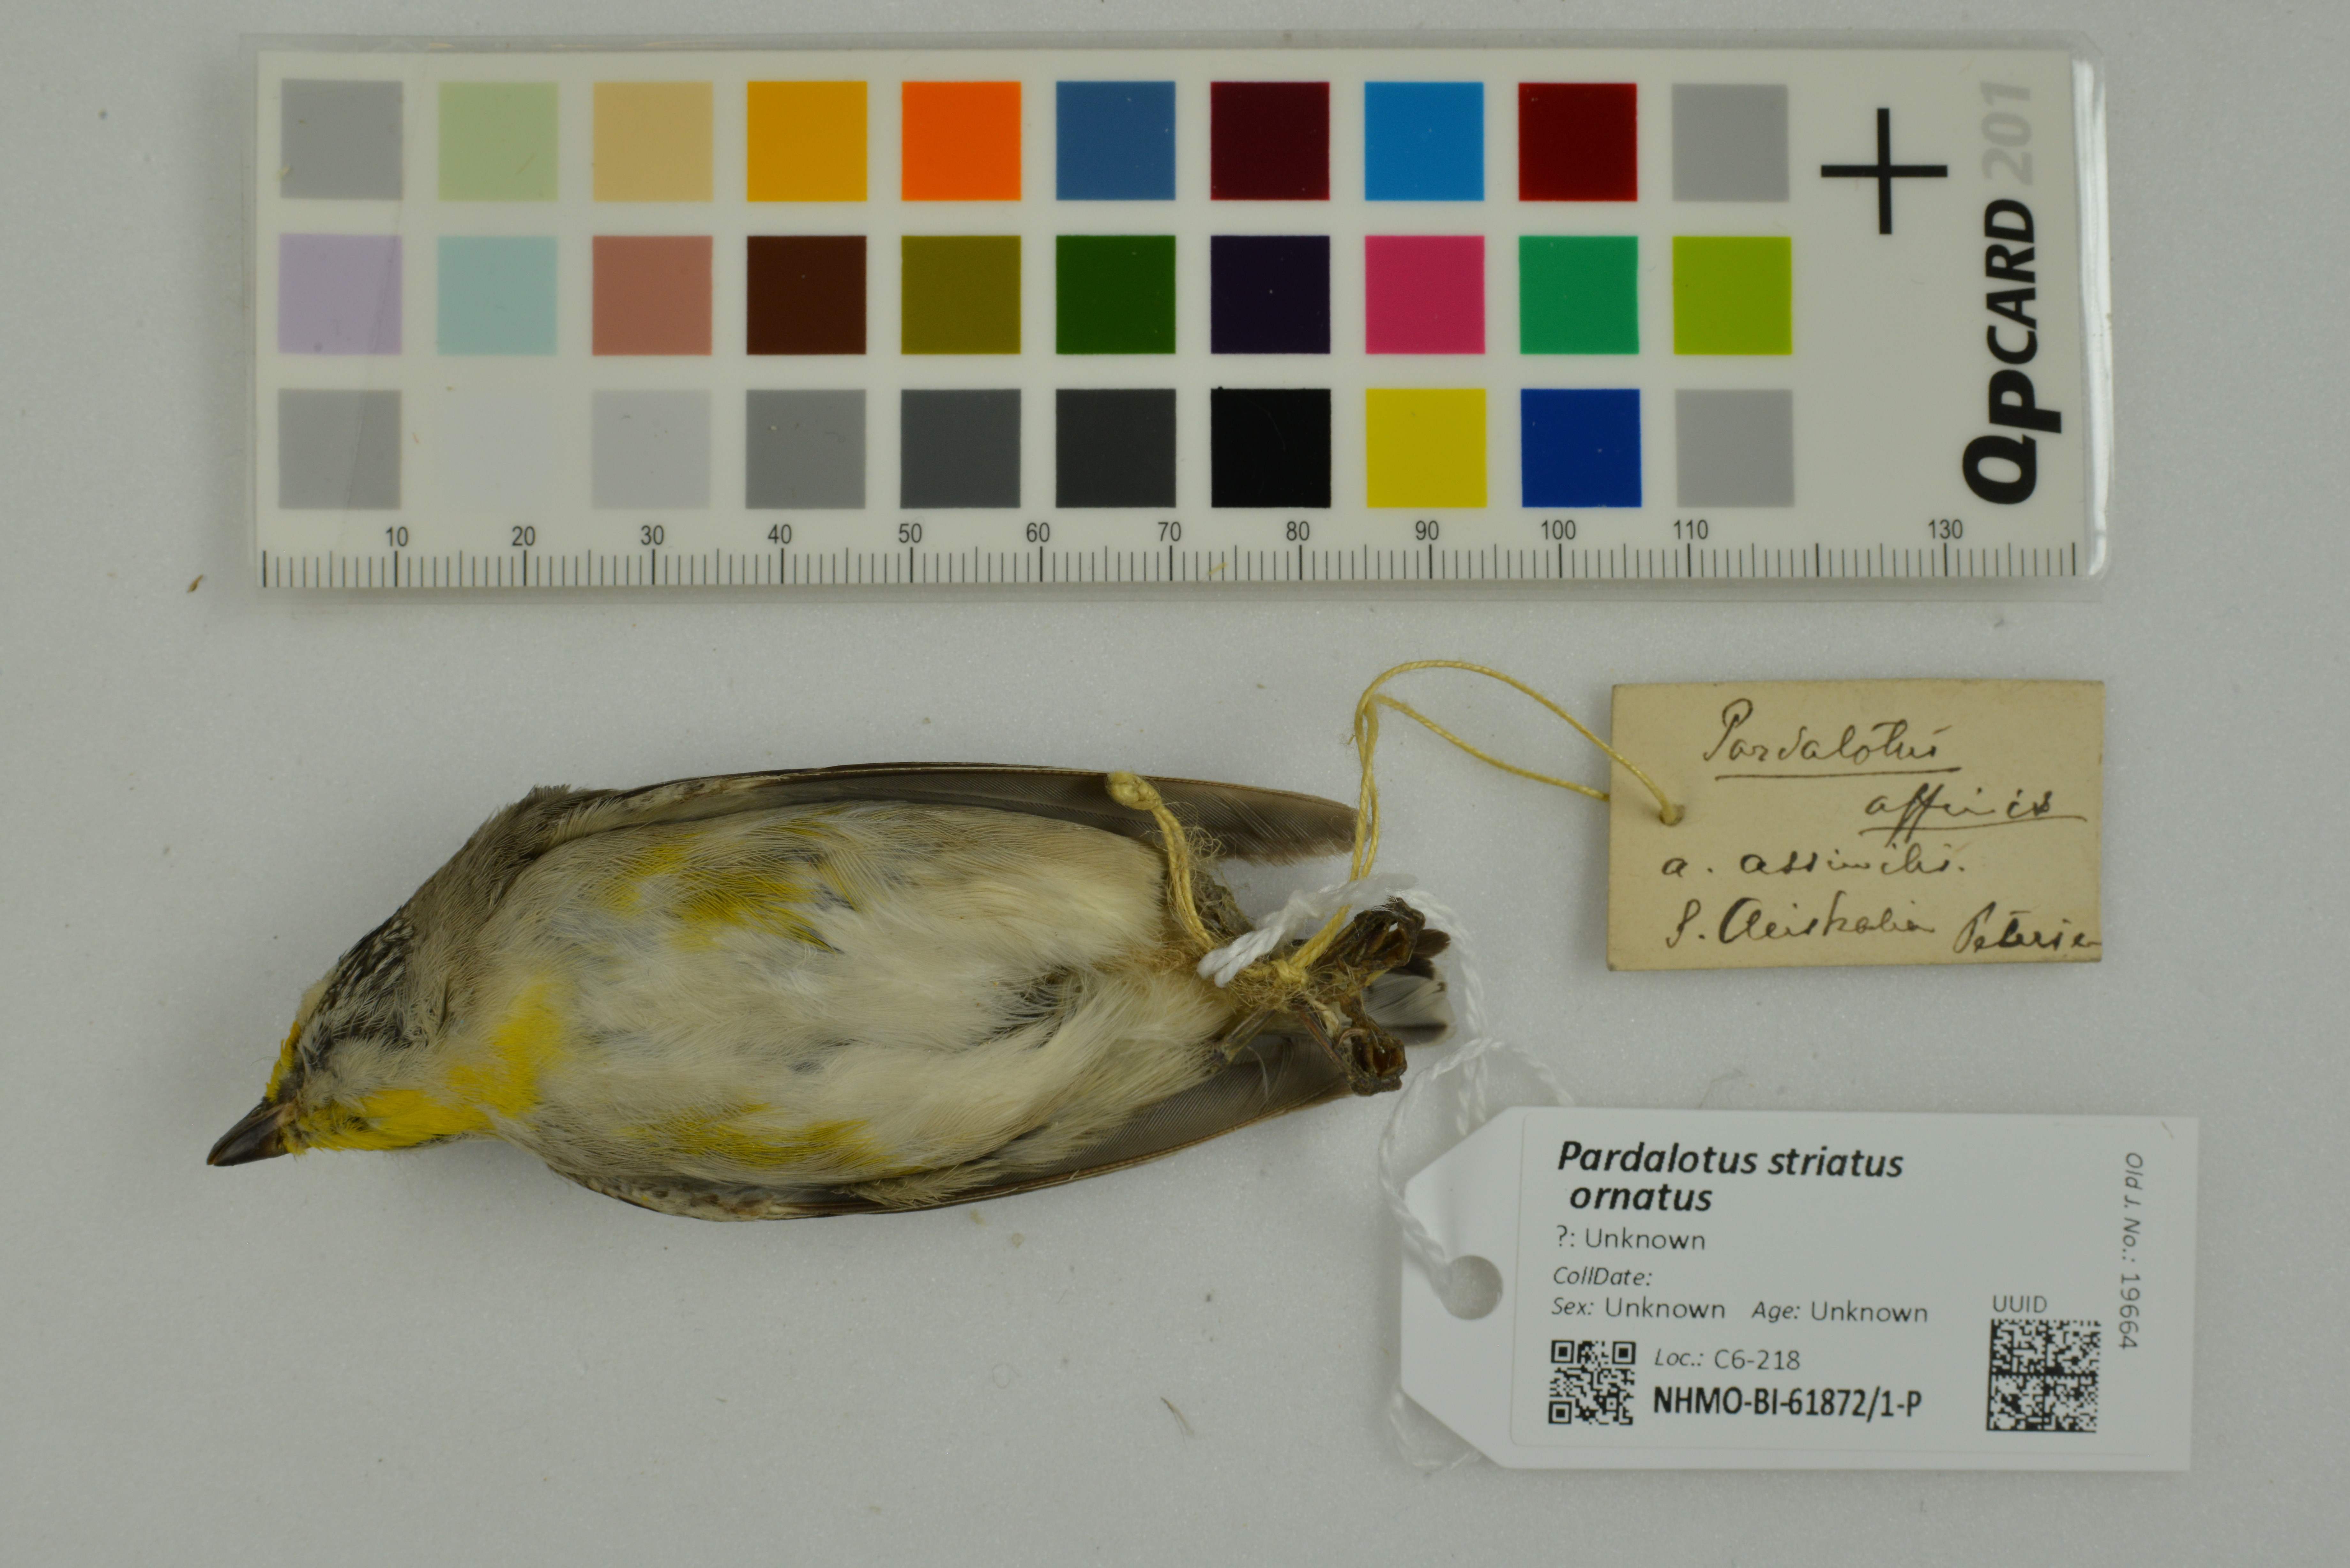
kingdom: Animalia
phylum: Chordata
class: Aves
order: Passeriformes
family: Pardalotidae
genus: Pardalotus
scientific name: Pardalotus striatus
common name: Striated pardalote
